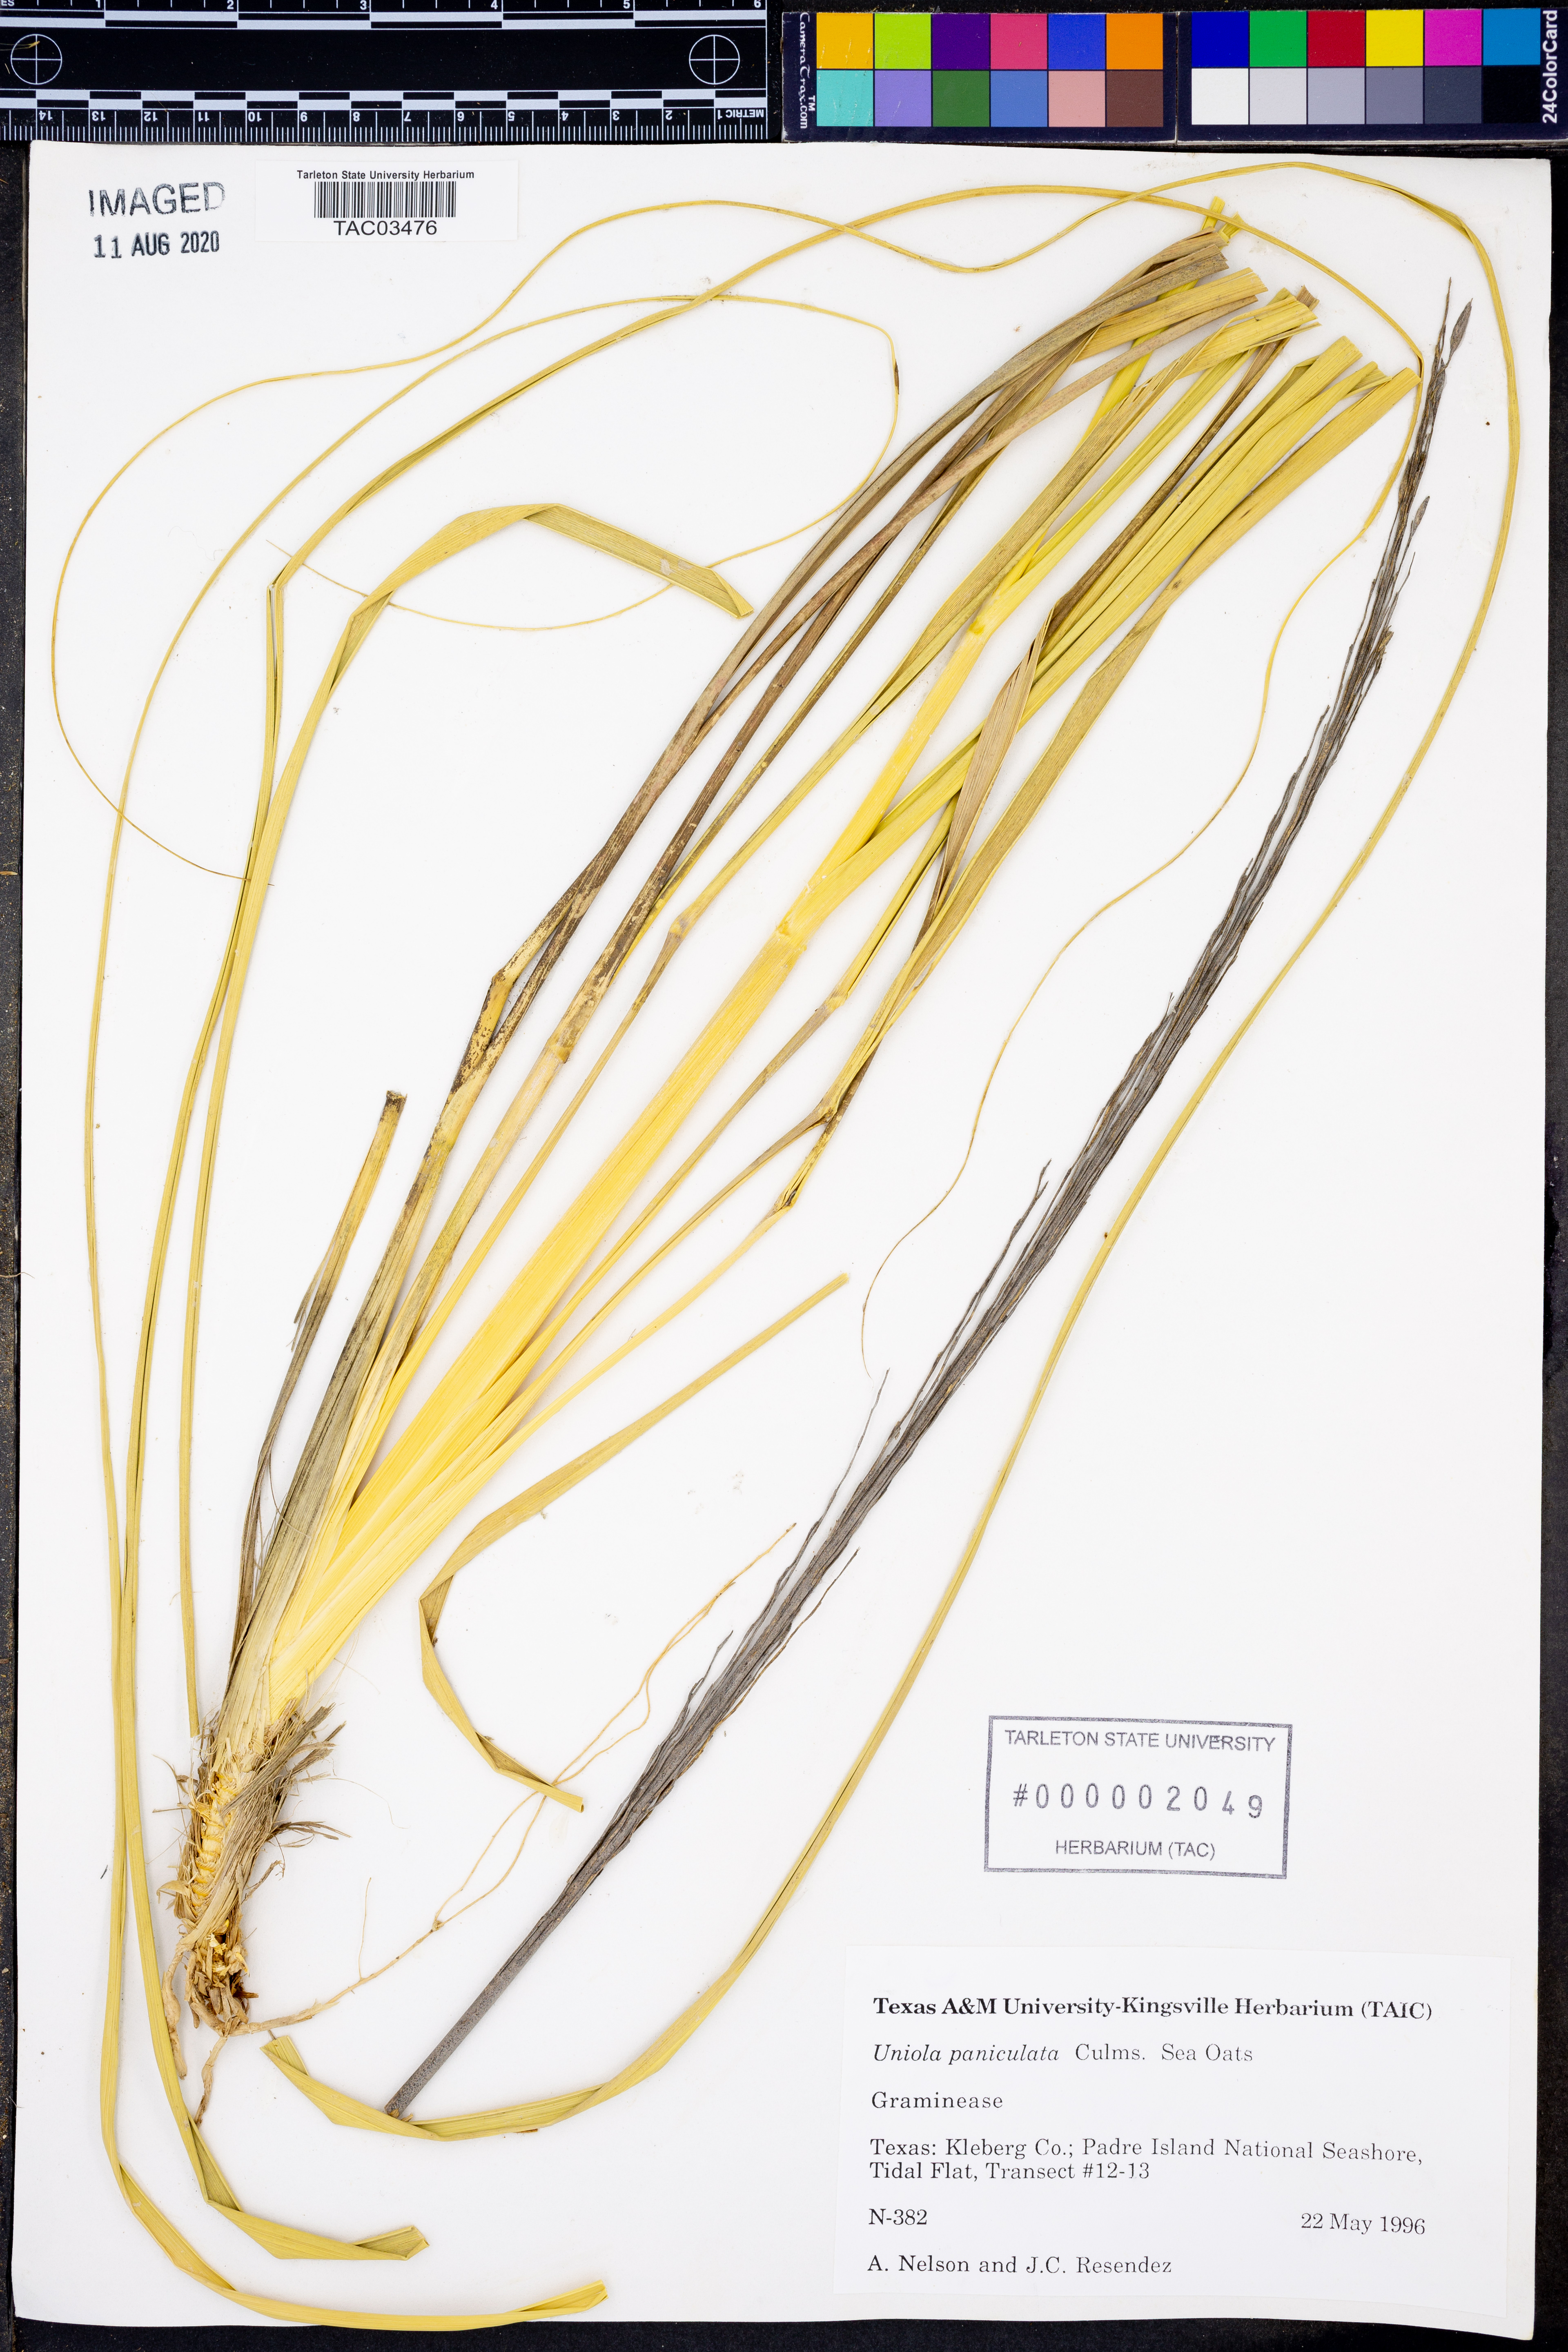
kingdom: Plantae
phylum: Tracheophyta
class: Liliopsida
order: Poales
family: Poaceae
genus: Uniola
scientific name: Uniola paniculata
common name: Seaside-oats
